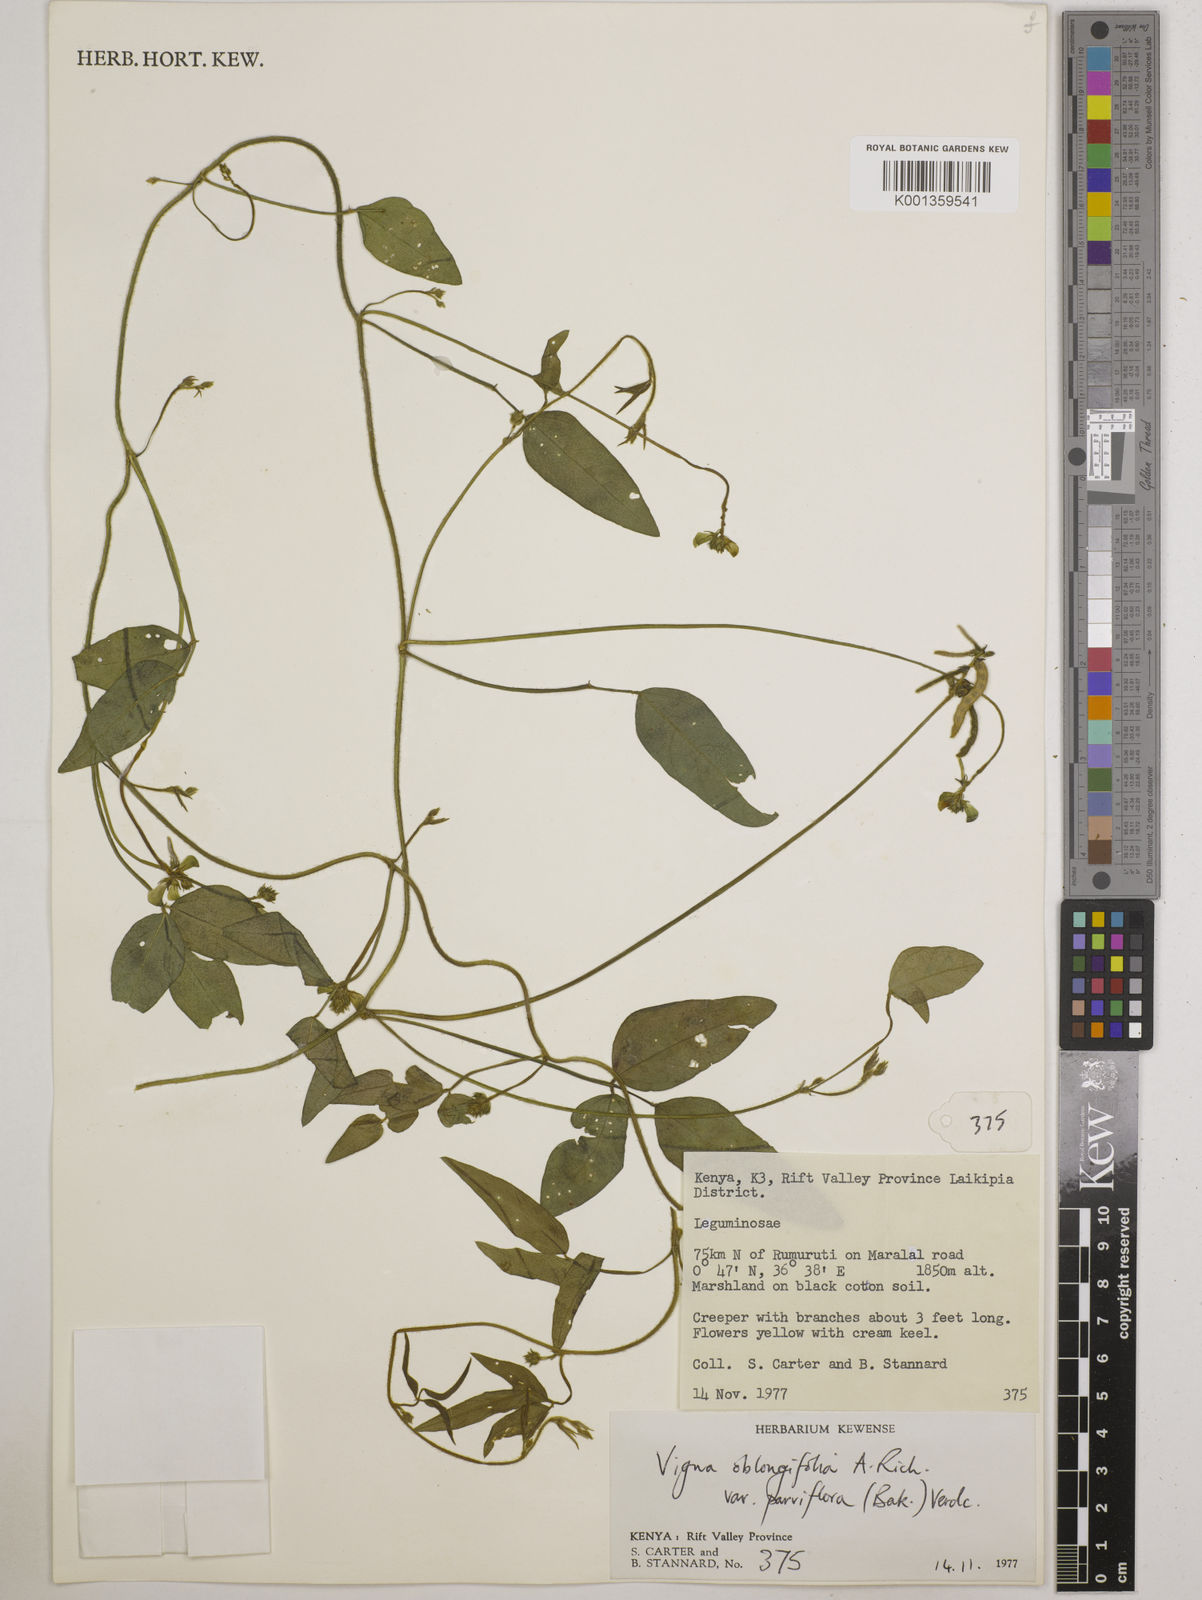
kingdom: Plantae
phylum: Tracheophyta
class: Magnoliopsida
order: Fabales
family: Fabaceae
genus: Vigna
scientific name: Vigna
